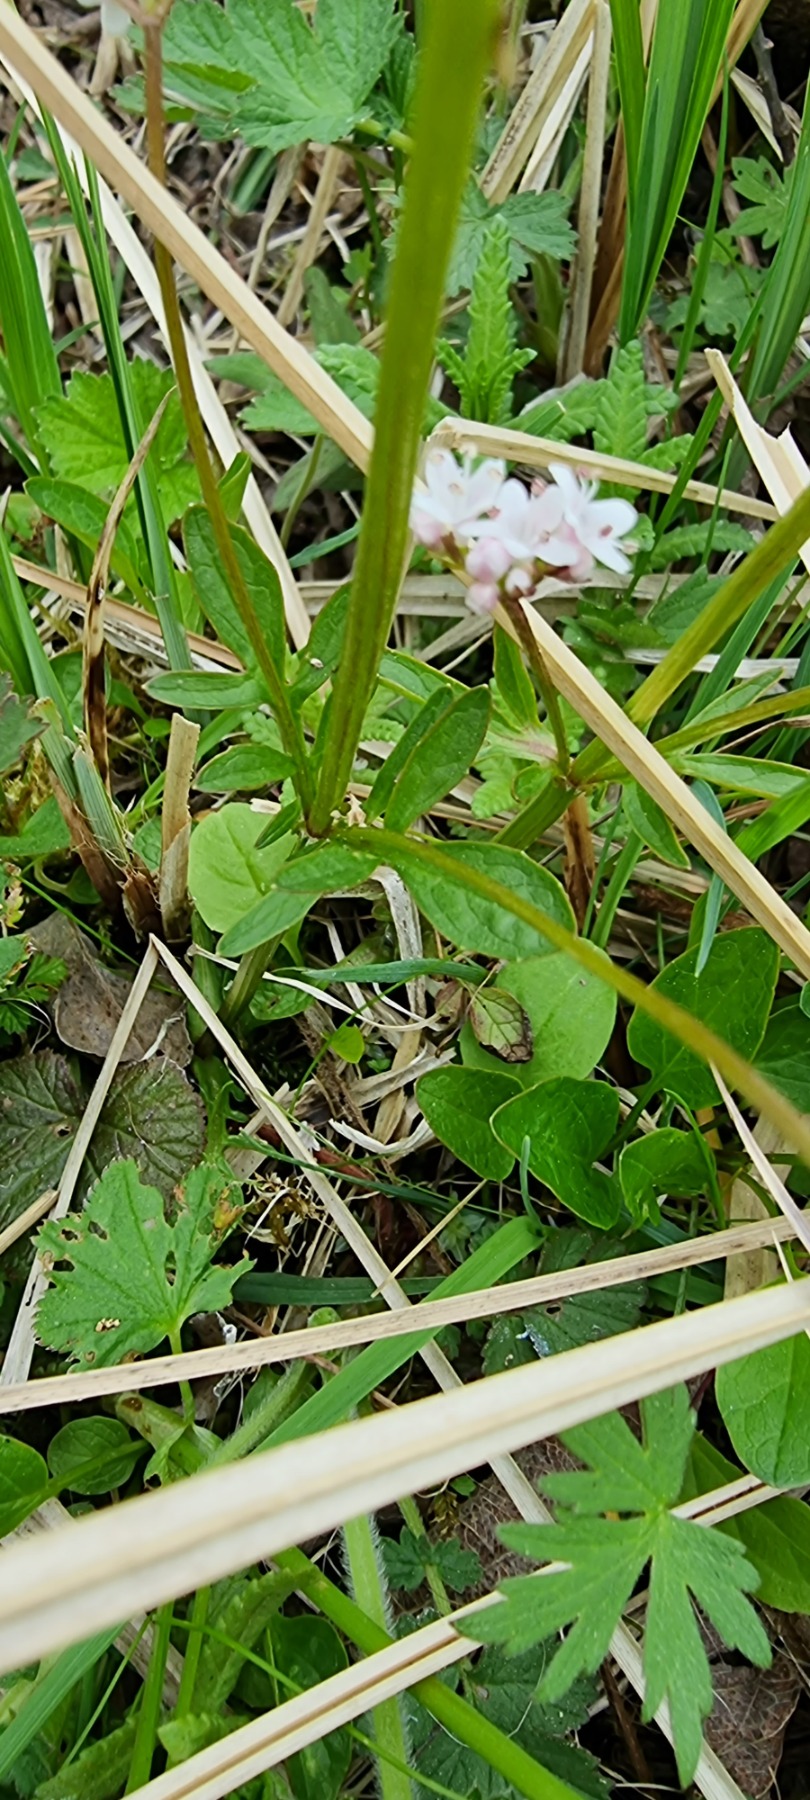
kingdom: Plantae
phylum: Tracheophyta
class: Magnoliopsida
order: Dipsacales
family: Caprifoliaceae
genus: Valeriana
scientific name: Valeriana dioica
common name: Tvebo baldrian
